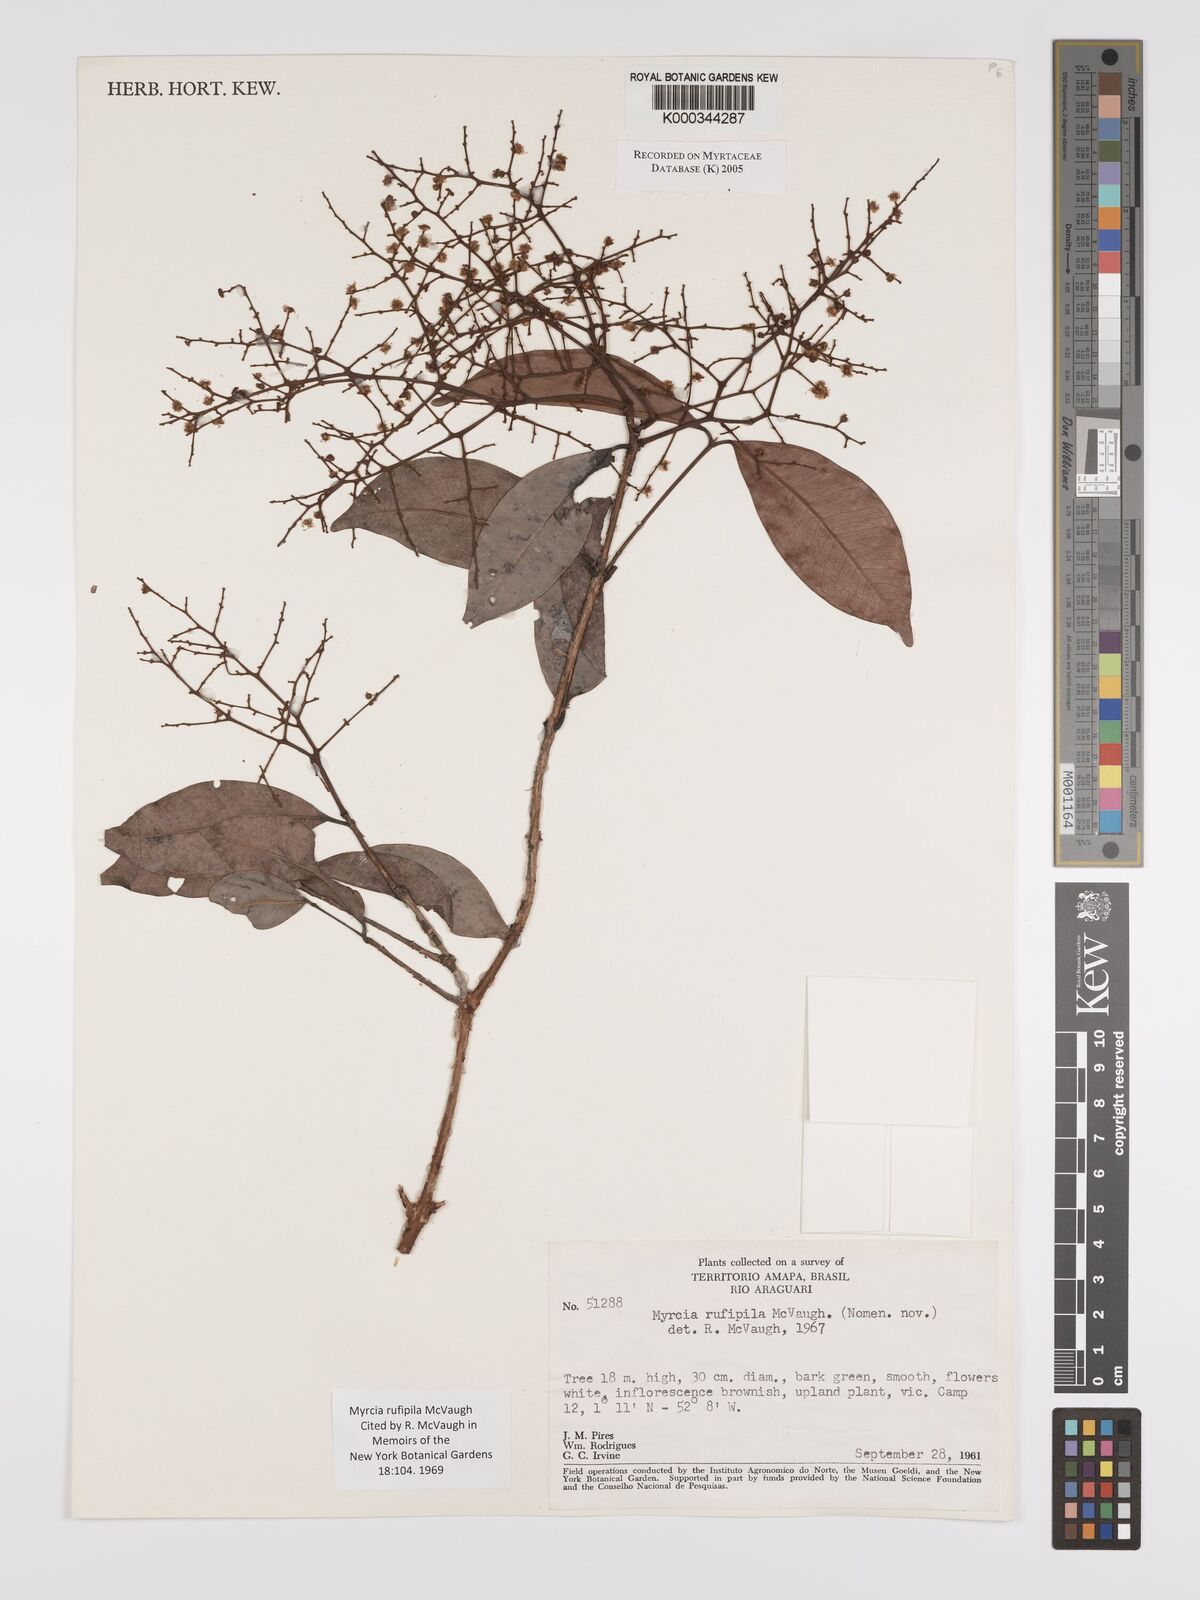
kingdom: Plantae
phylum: Tracheophyta
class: Magnoliopsida
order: Myrtales
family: Myrtaceae
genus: Myrcia
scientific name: Myrcia rufipila
